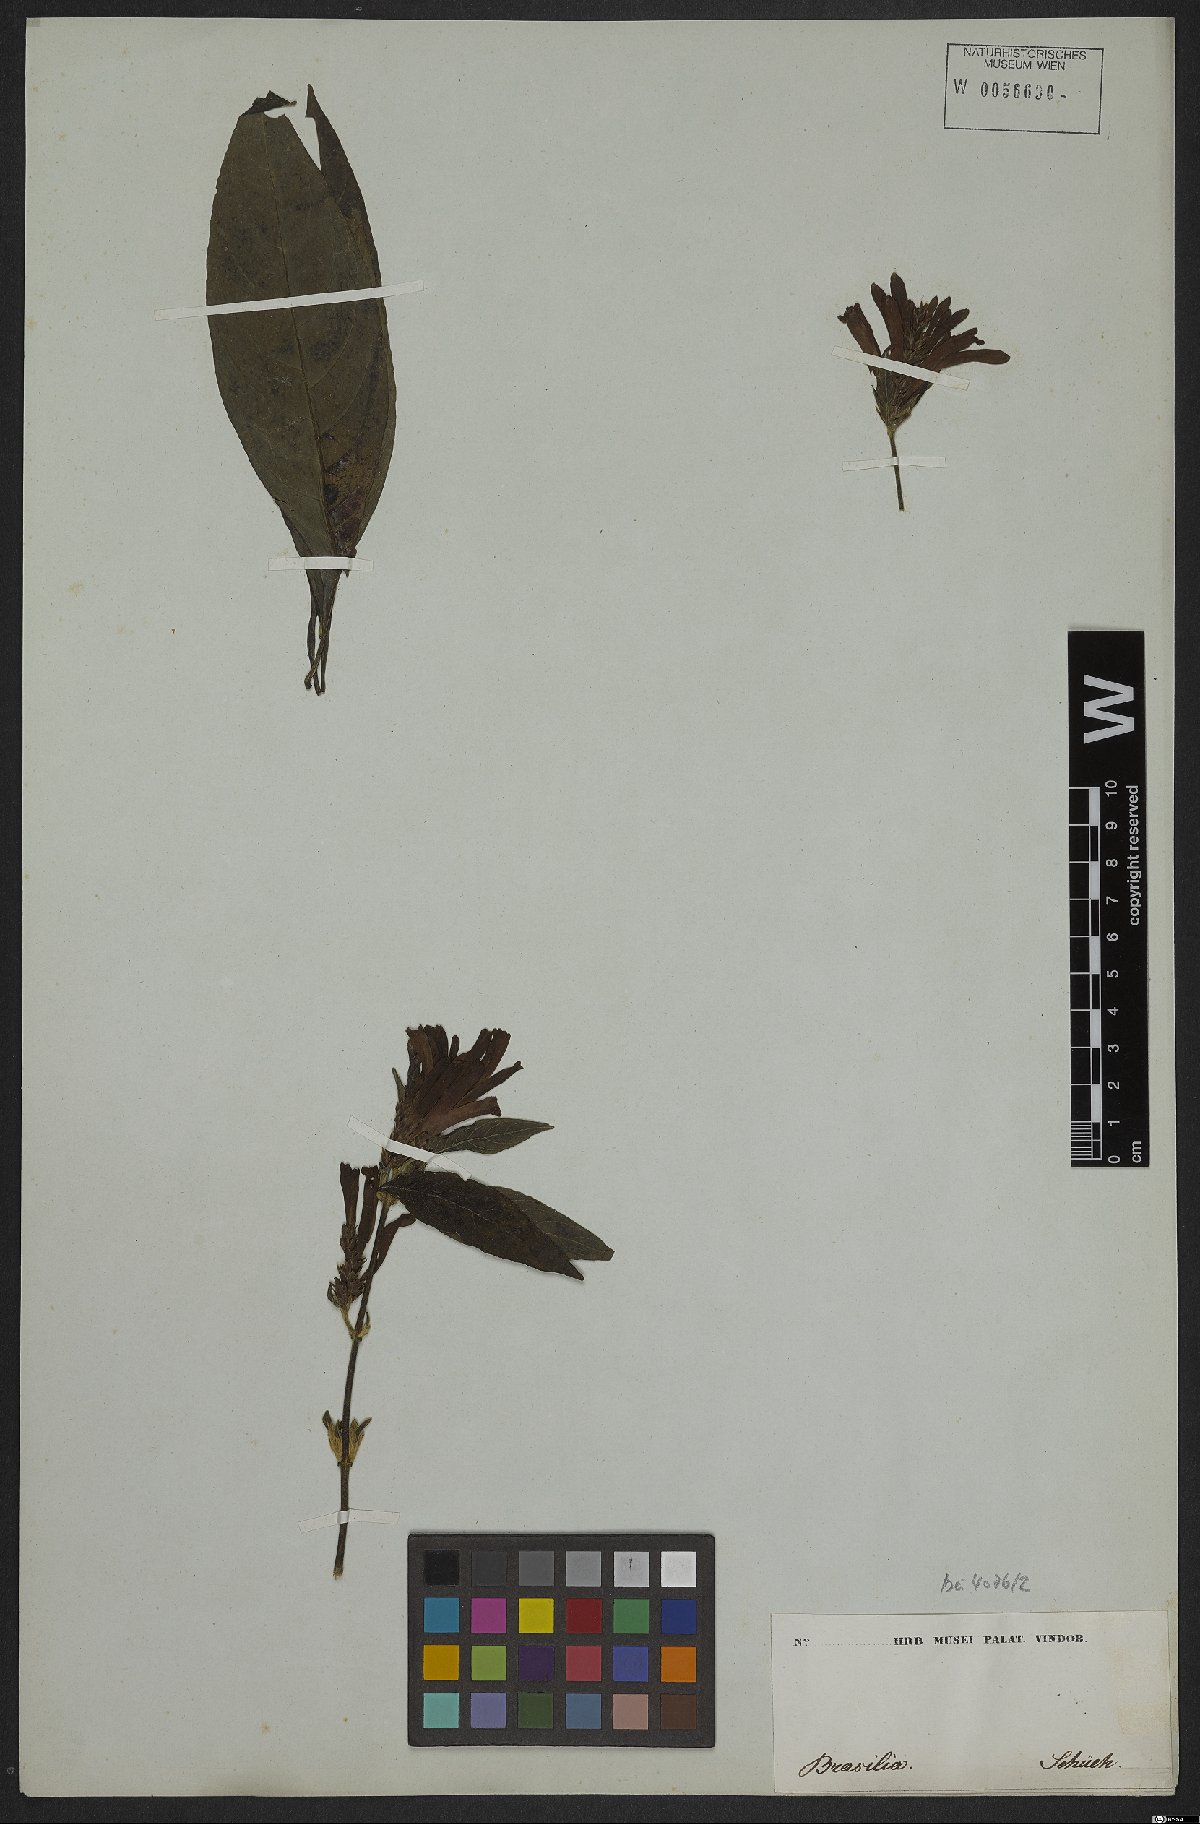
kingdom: Plantae
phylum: Tracheophyta
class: Magnoliopsida
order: Lamiales
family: Acanthaceae
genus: Aphelandra
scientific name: Aphelandra longiflora
